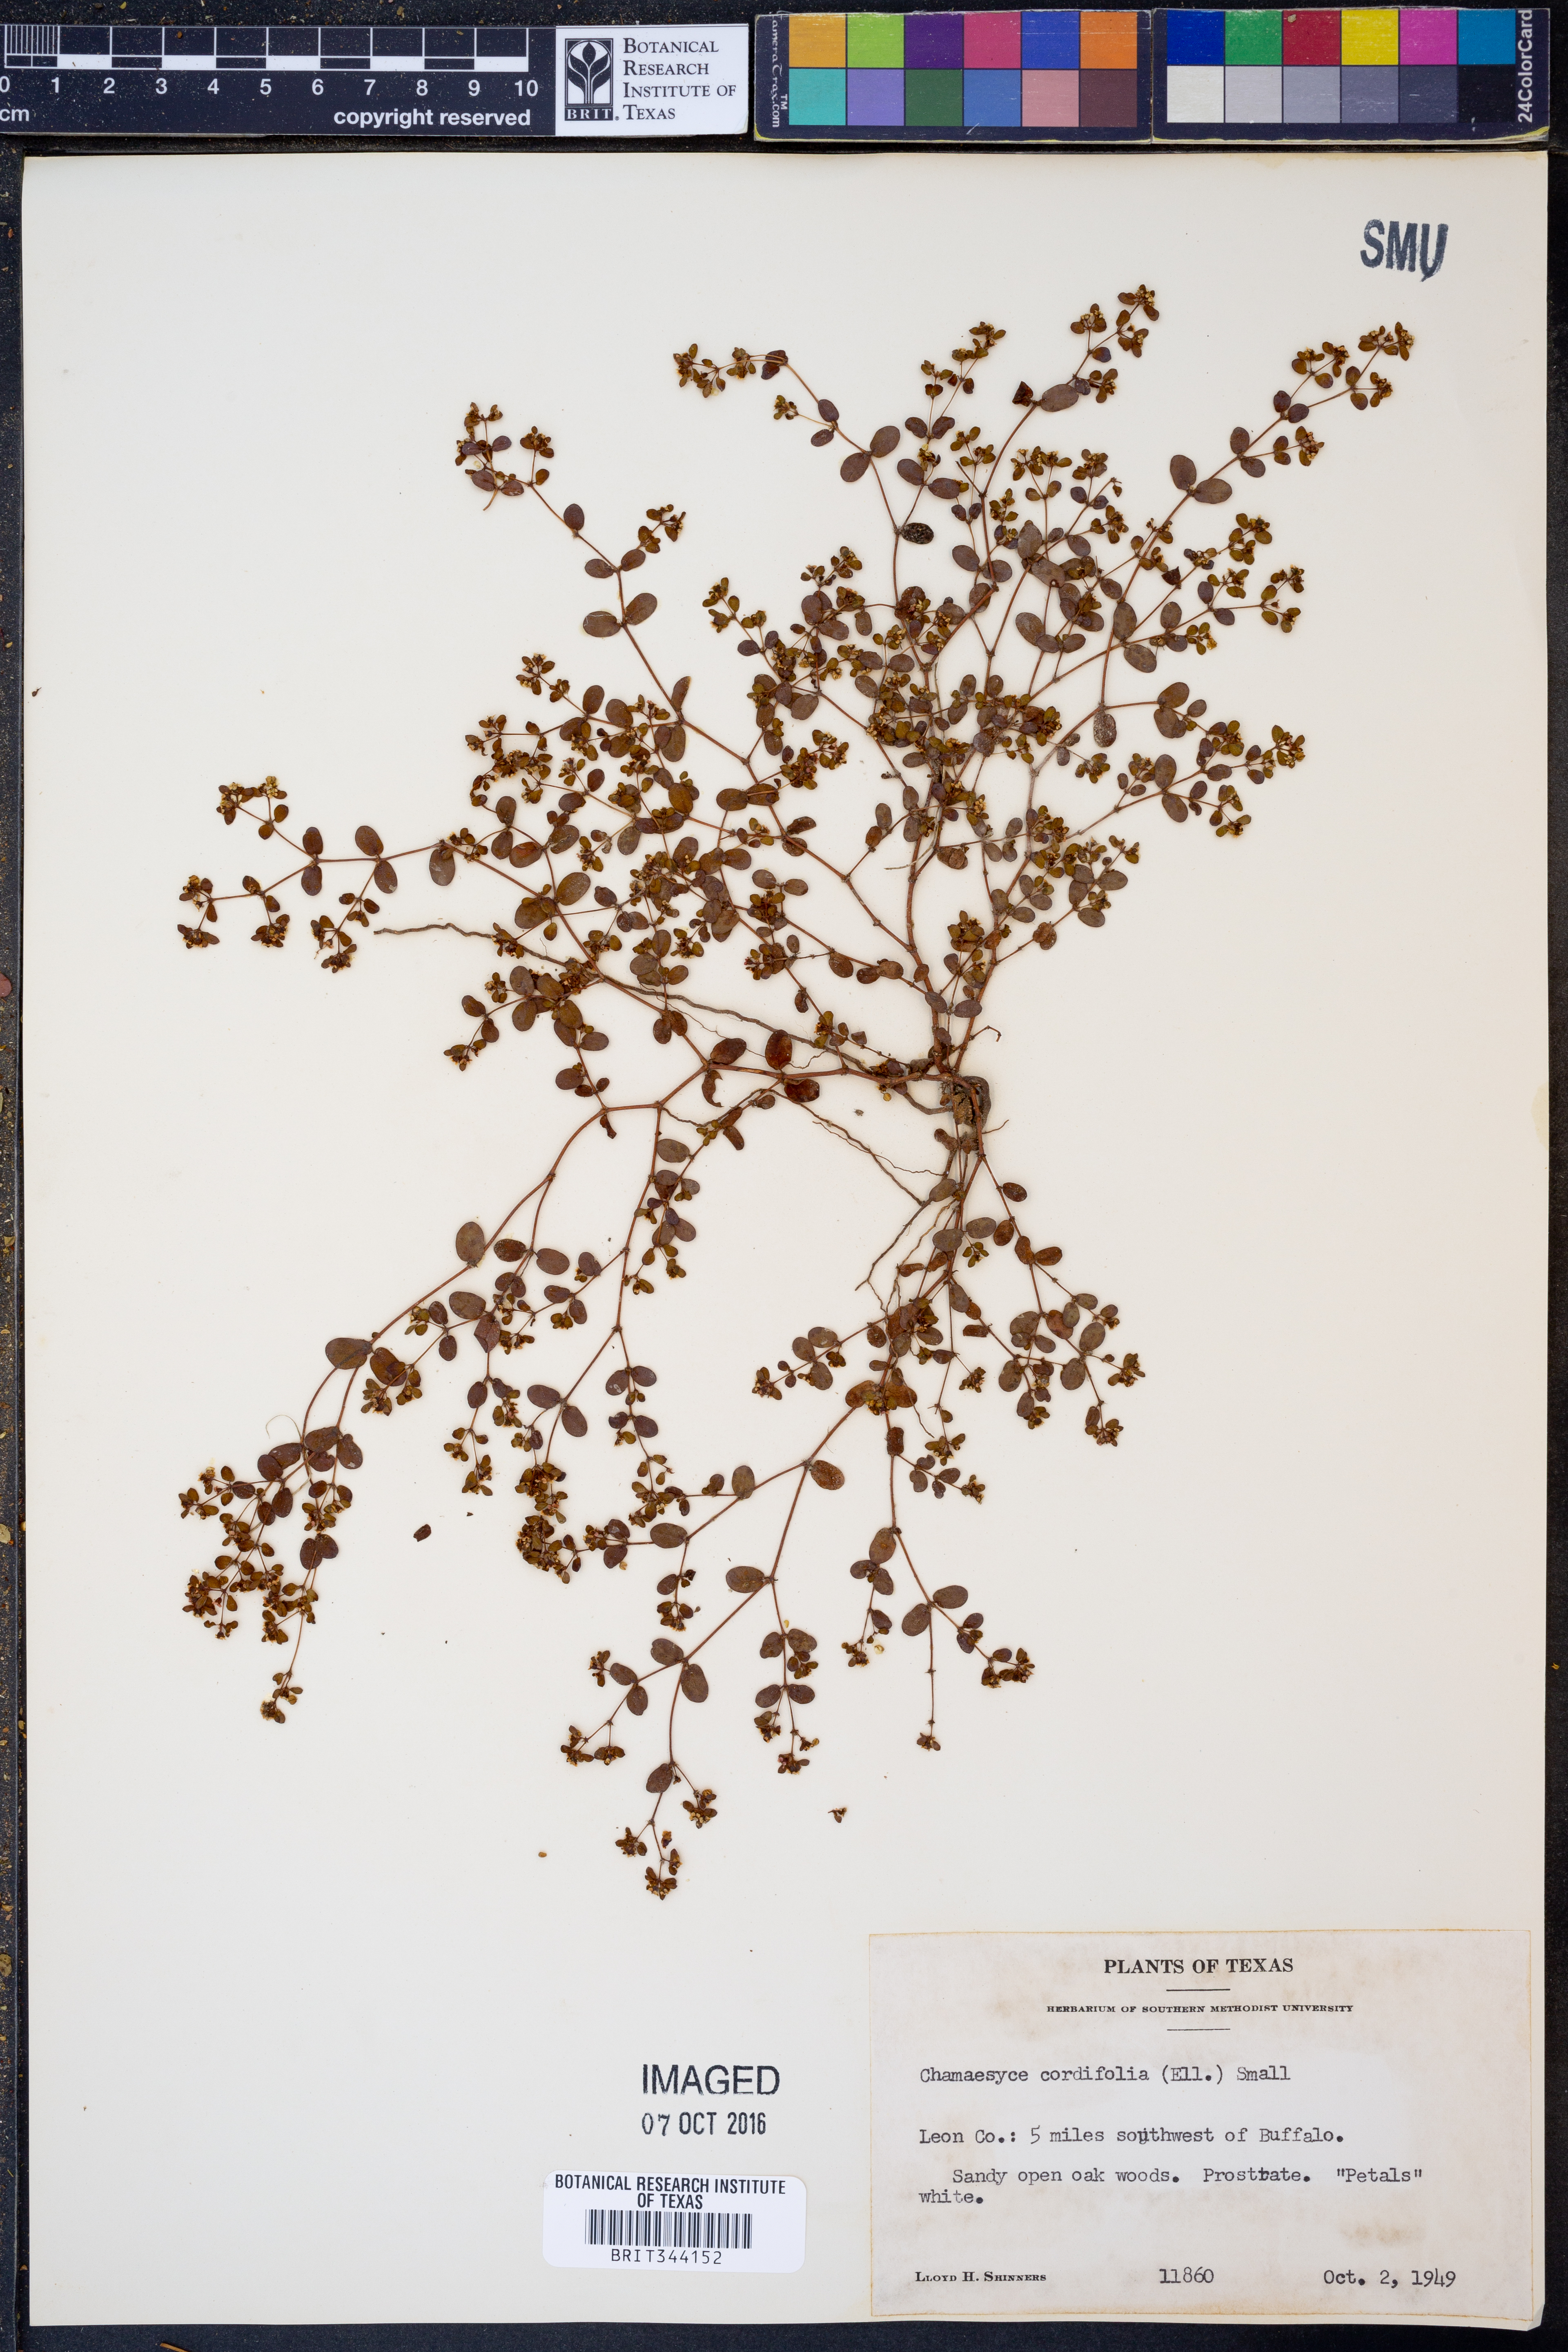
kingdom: Plantae
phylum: Tracheophyta
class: Magnoliopsida
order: Malpighiales
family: Euphorbiaceae
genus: Euphorbia
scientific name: Euphorbia cordifolia
